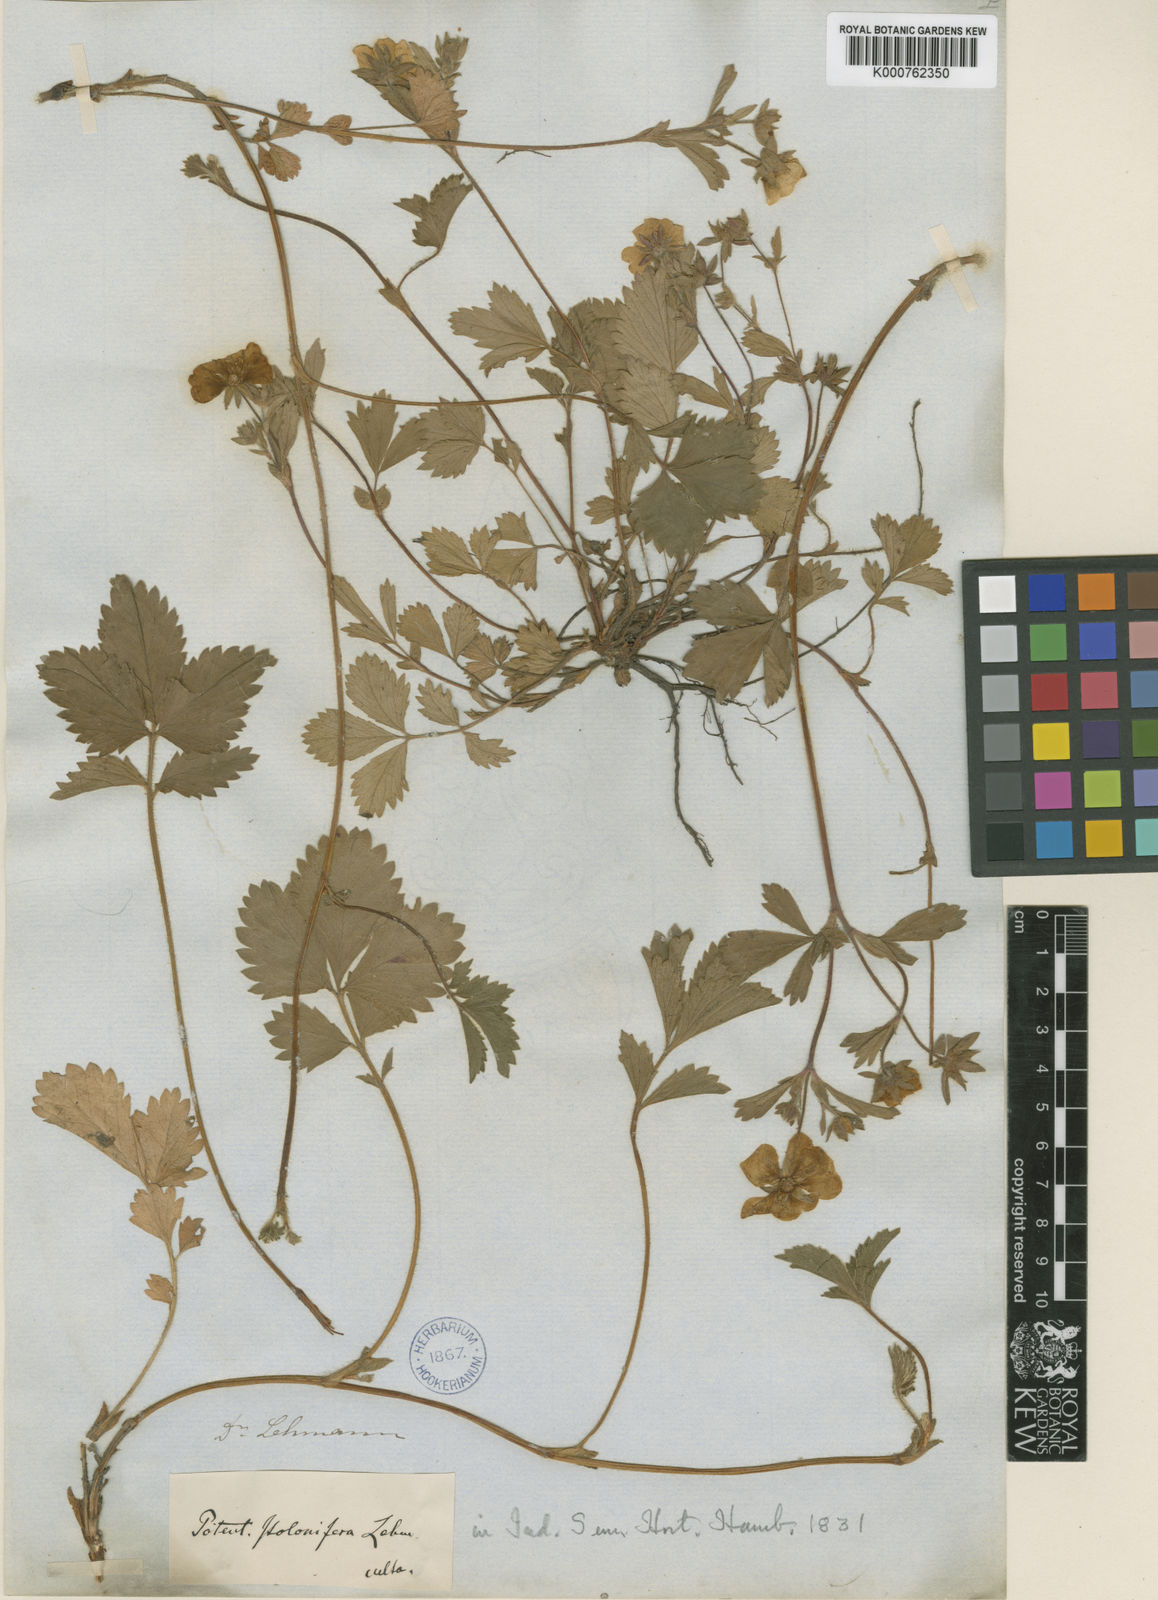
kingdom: Plantae
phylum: Tracheophyta
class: Magnoliopsida
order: Rosales
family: Rosaceae
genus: Potentilla
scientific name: Potentilla
